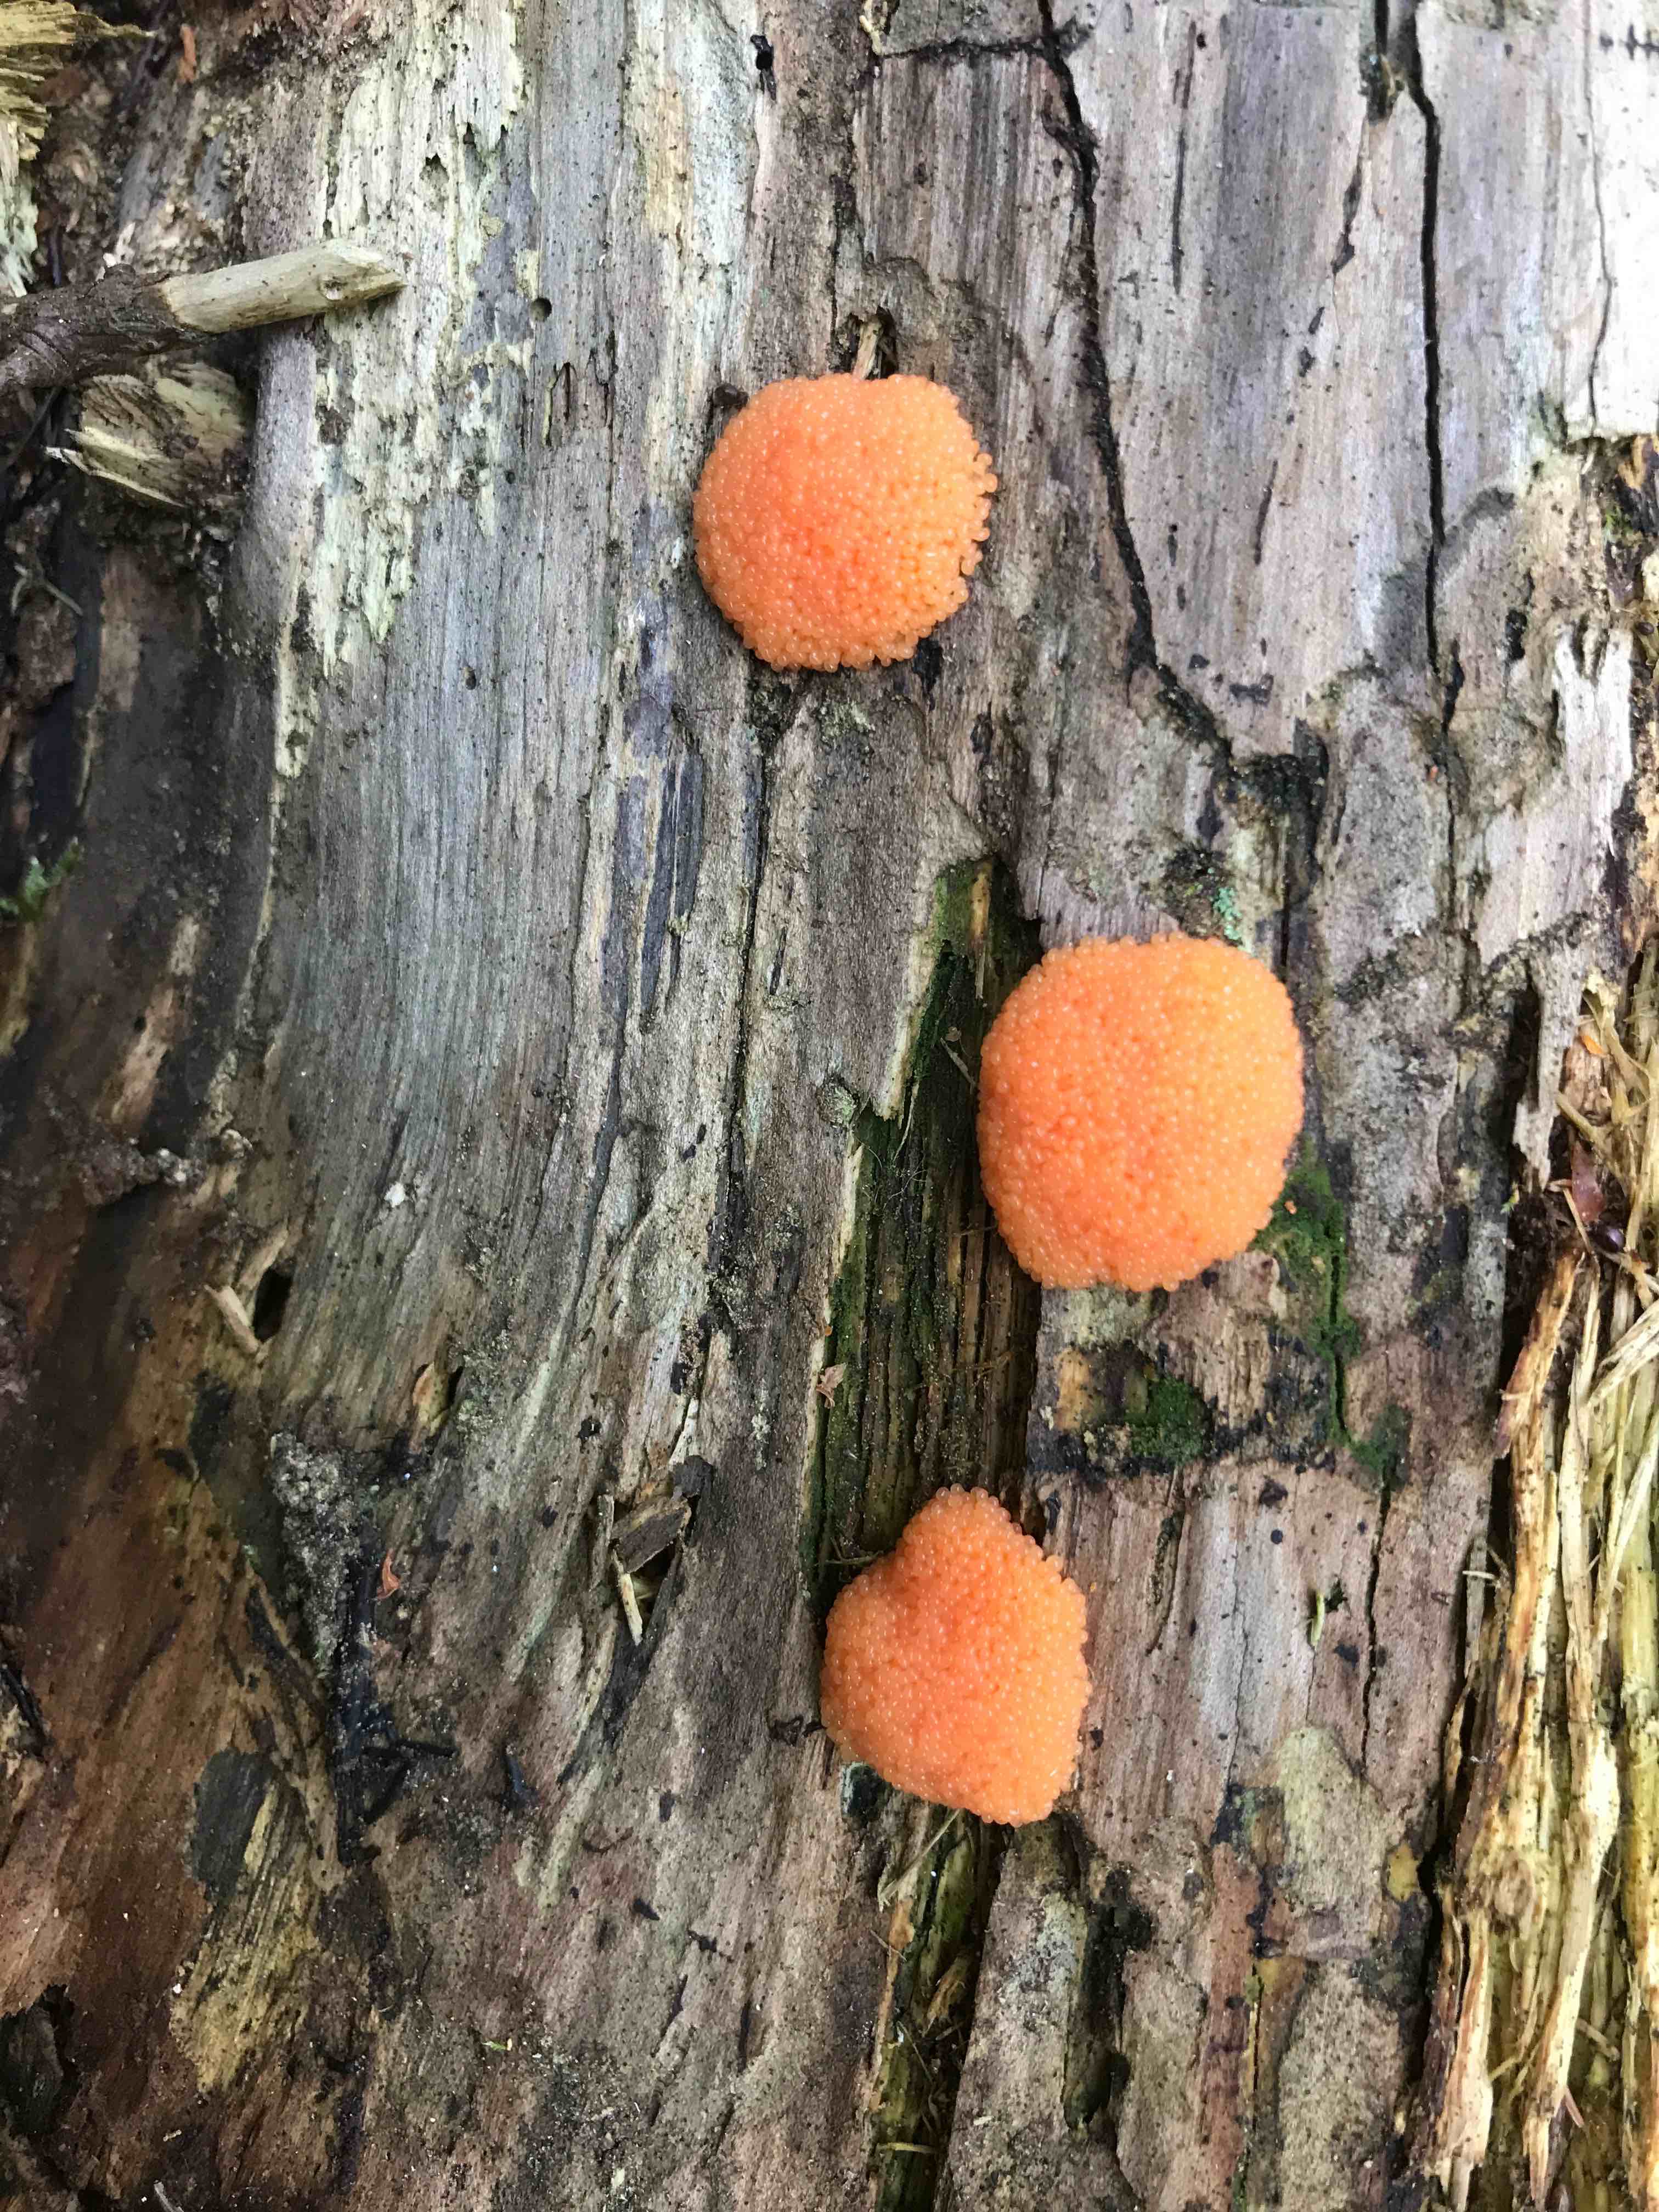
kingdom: Protozoa
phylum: Mycetozoa
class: Myxomycetes
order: Cribrariales
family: Tubiferaceae
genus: Tubifera
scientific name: Tubifera ferruginosa
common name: kanel-støvrør
